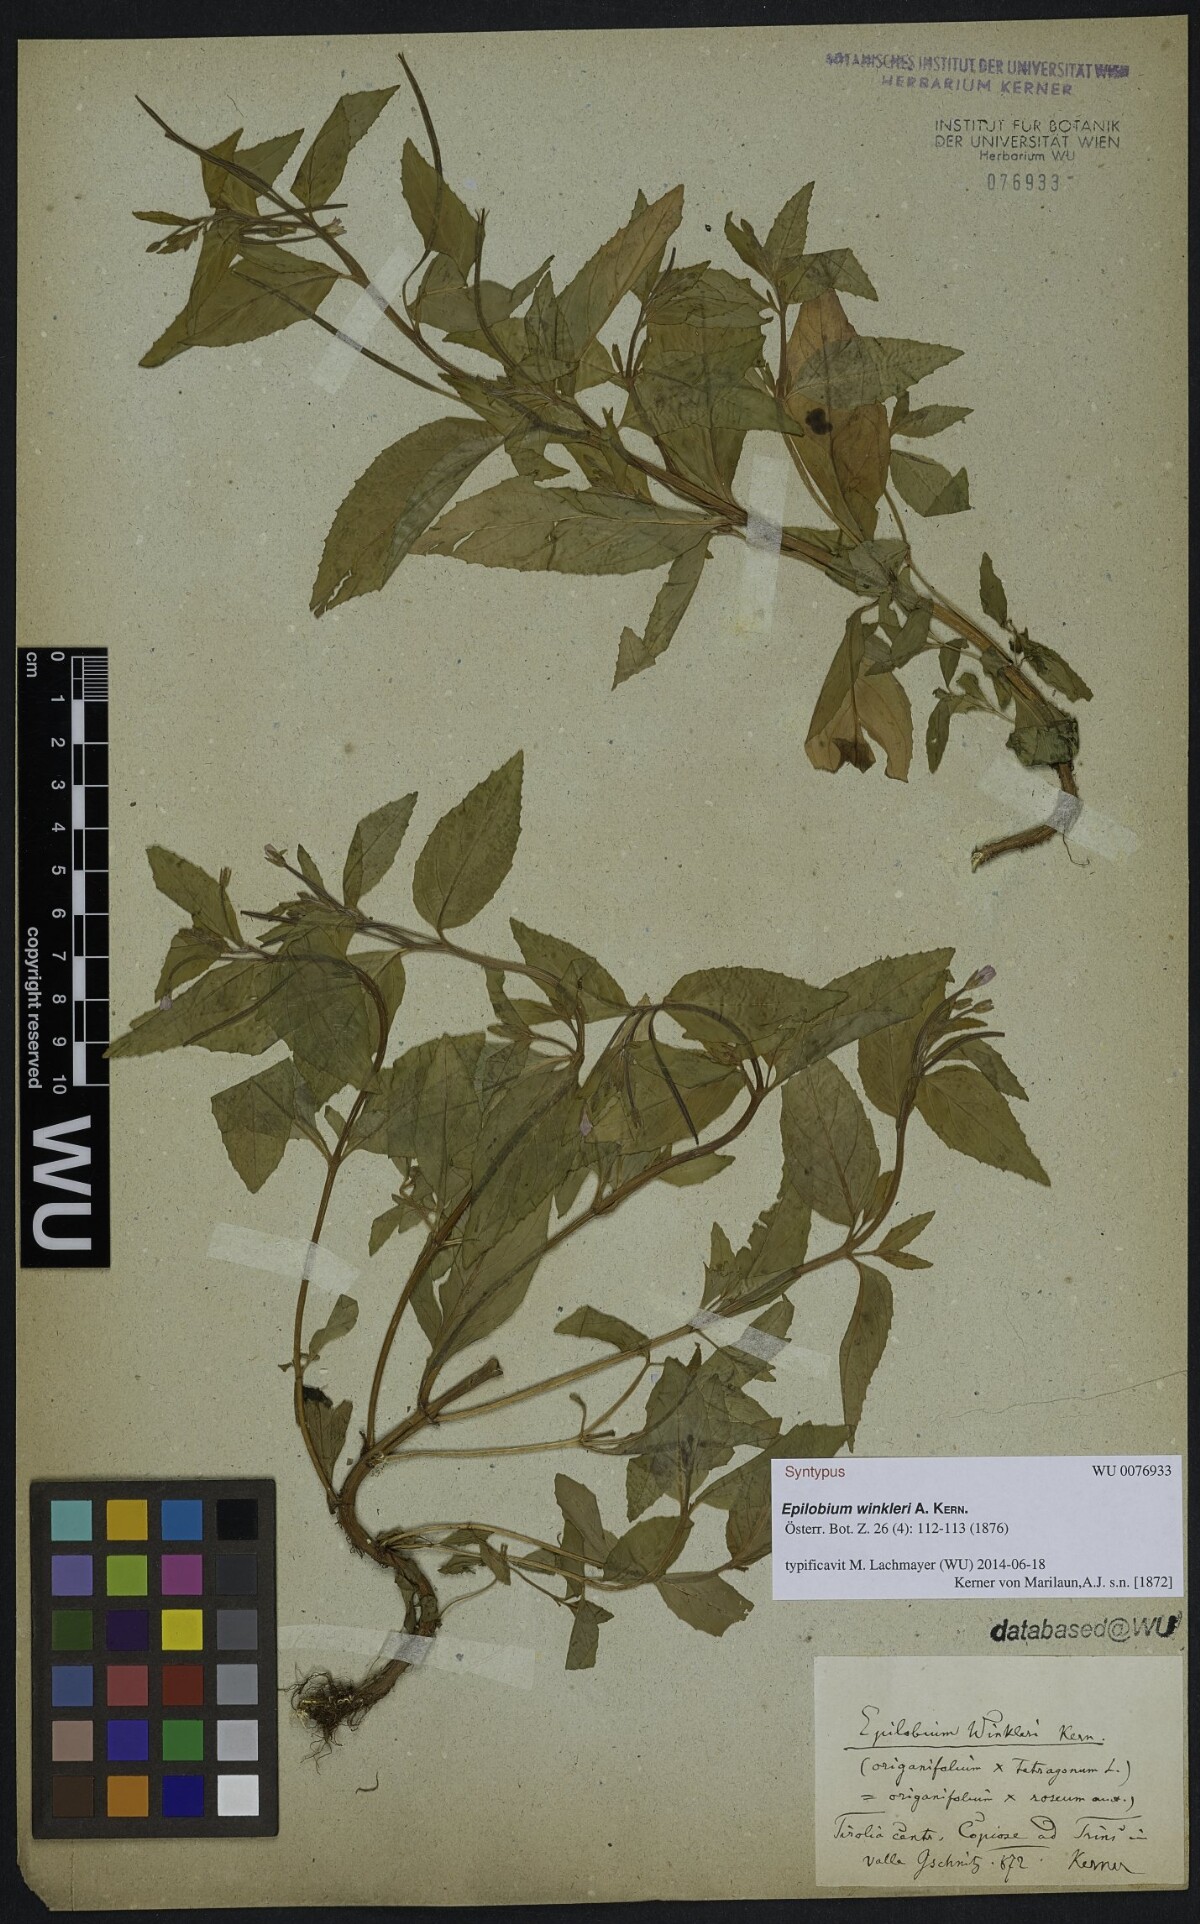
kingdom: Plantae
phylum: Tracheophyta
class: Magnoliopsida
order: Myrtales
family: Onagraceae
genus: Epilobium
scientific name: Epilobium winkleri
